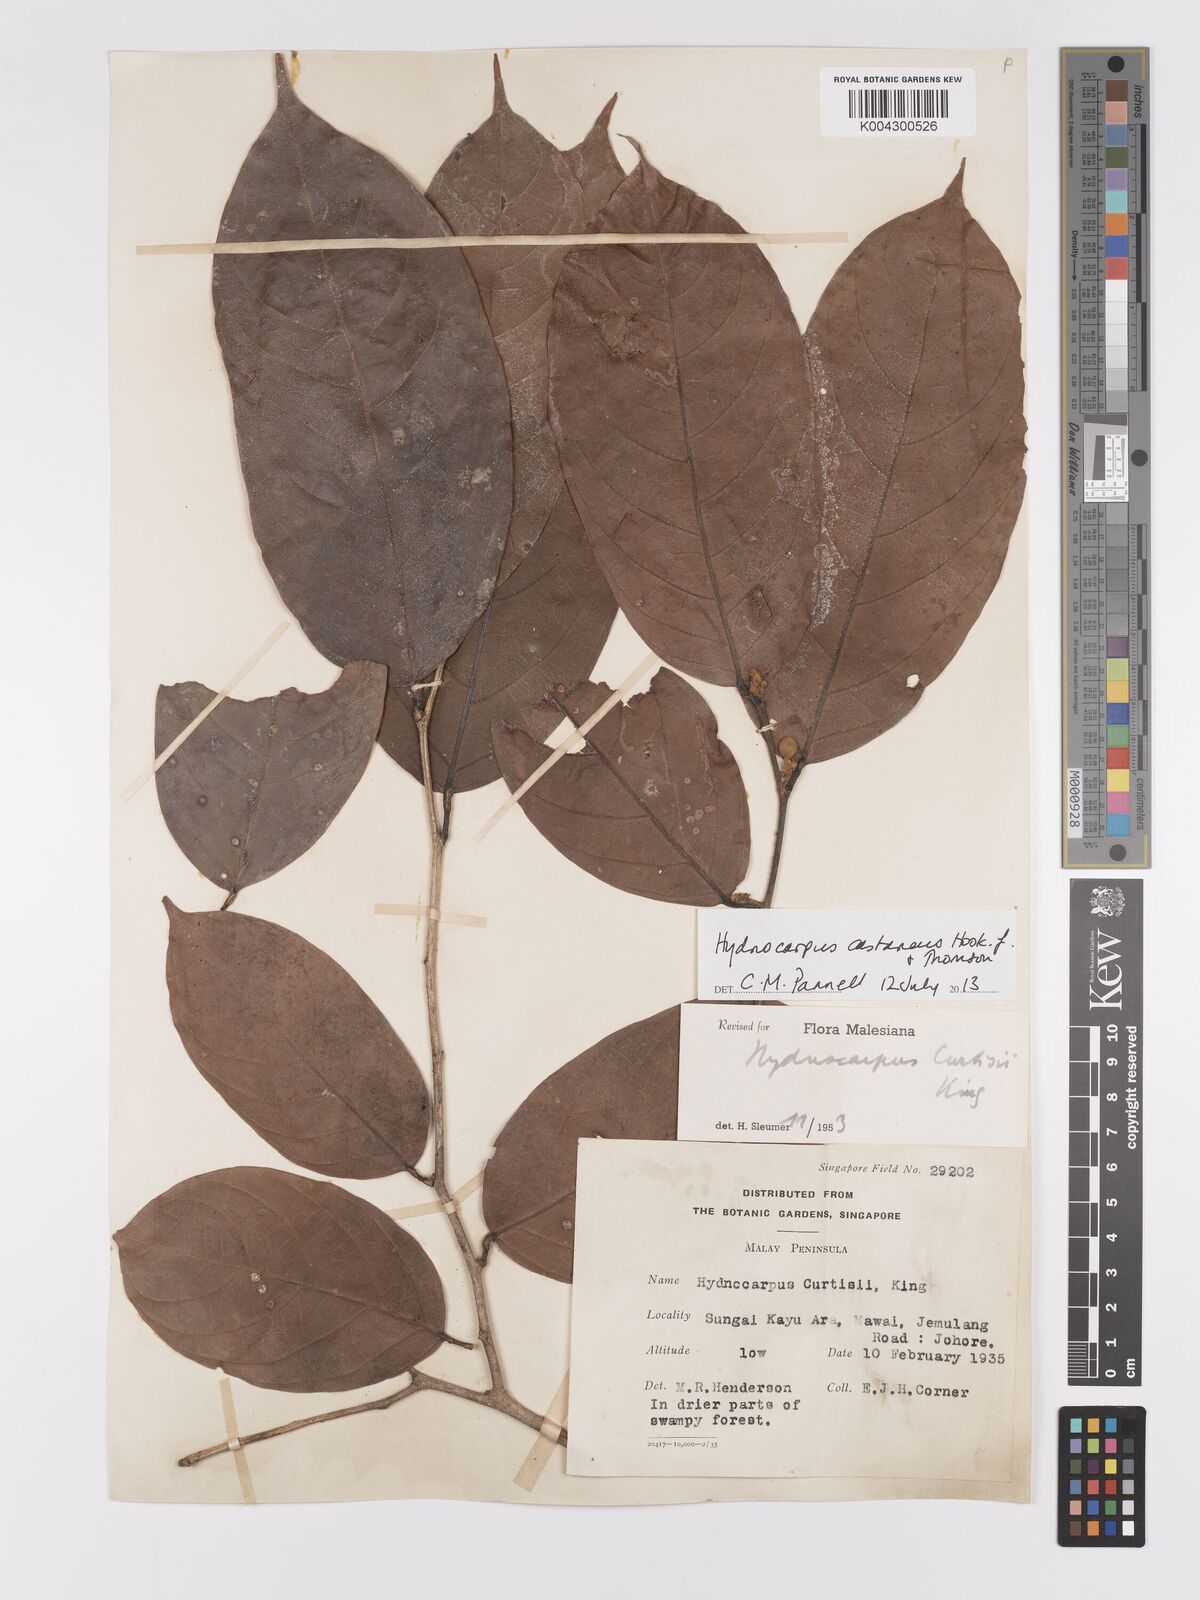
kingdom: Plantae
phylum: Tracheophyta
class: Magnoliopsida
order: Malpighiales
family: Achariaceae
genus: Hydnocarpus
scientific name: Hydnocarpus castaneus
